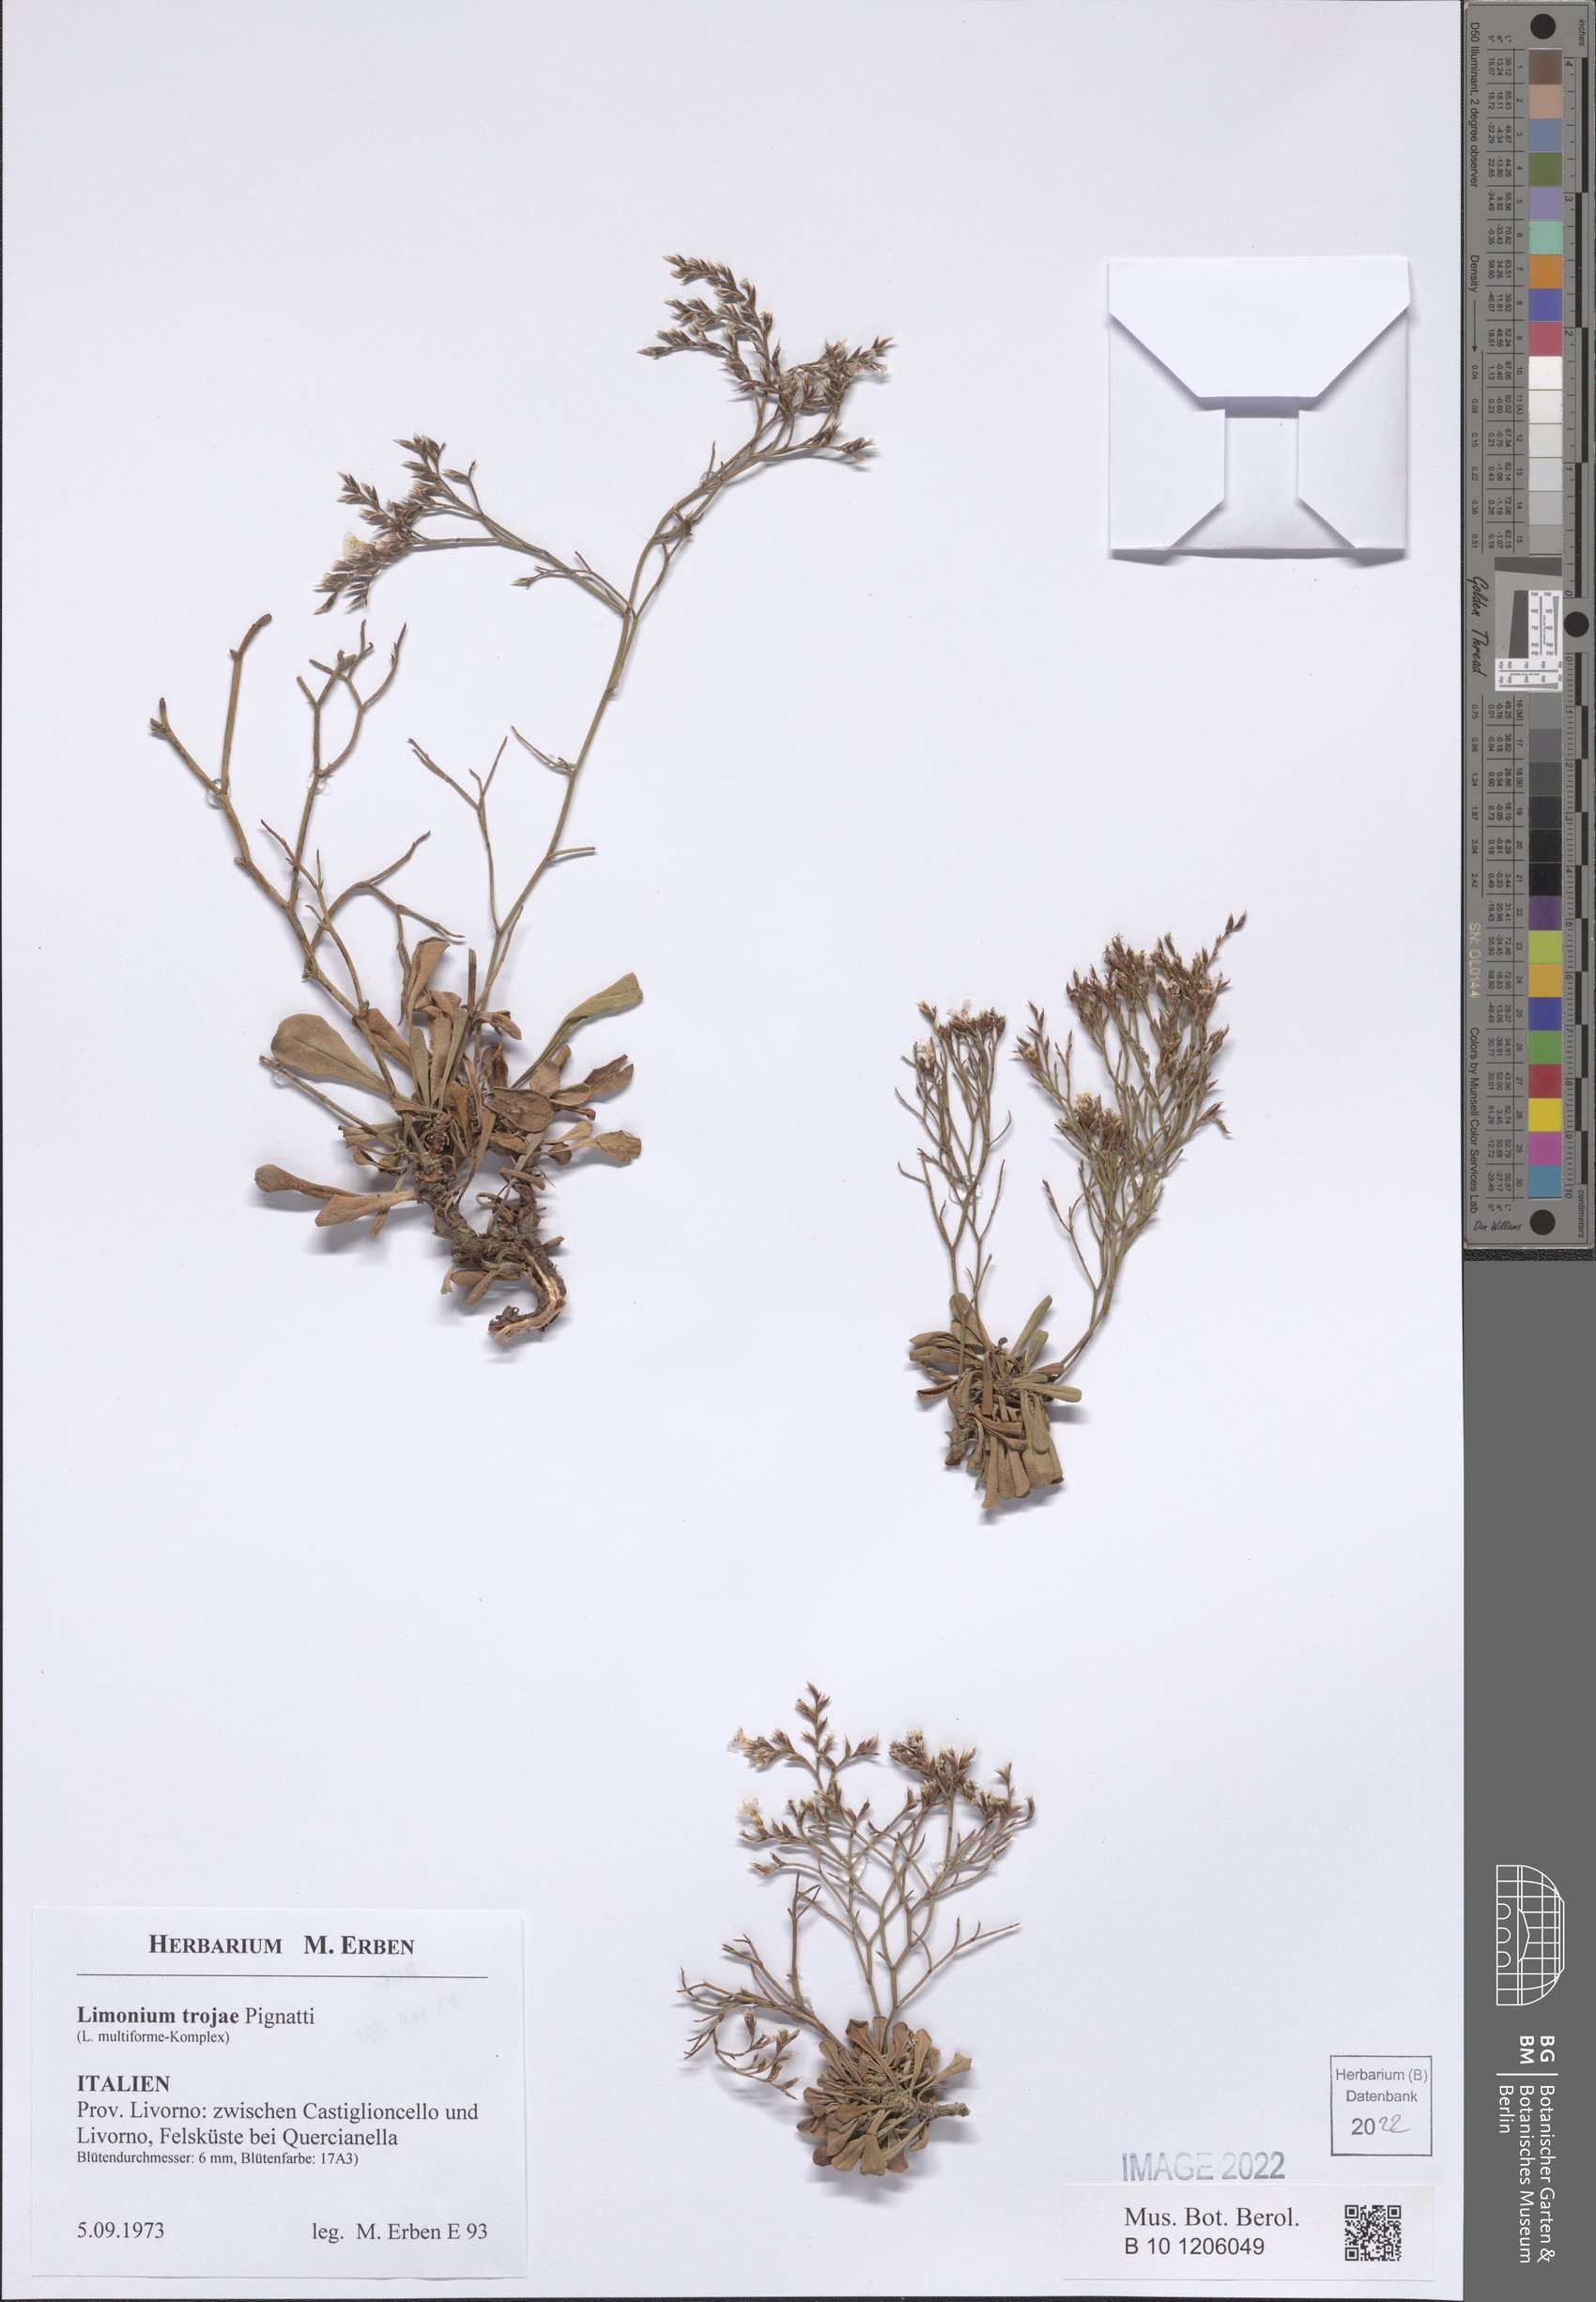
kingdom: Plantae
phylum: Tracheophyta
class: Magnoliopsida
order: Caryophyllales
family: Plumbaginaceae
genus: Limonium
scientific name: Limonium multiforme
